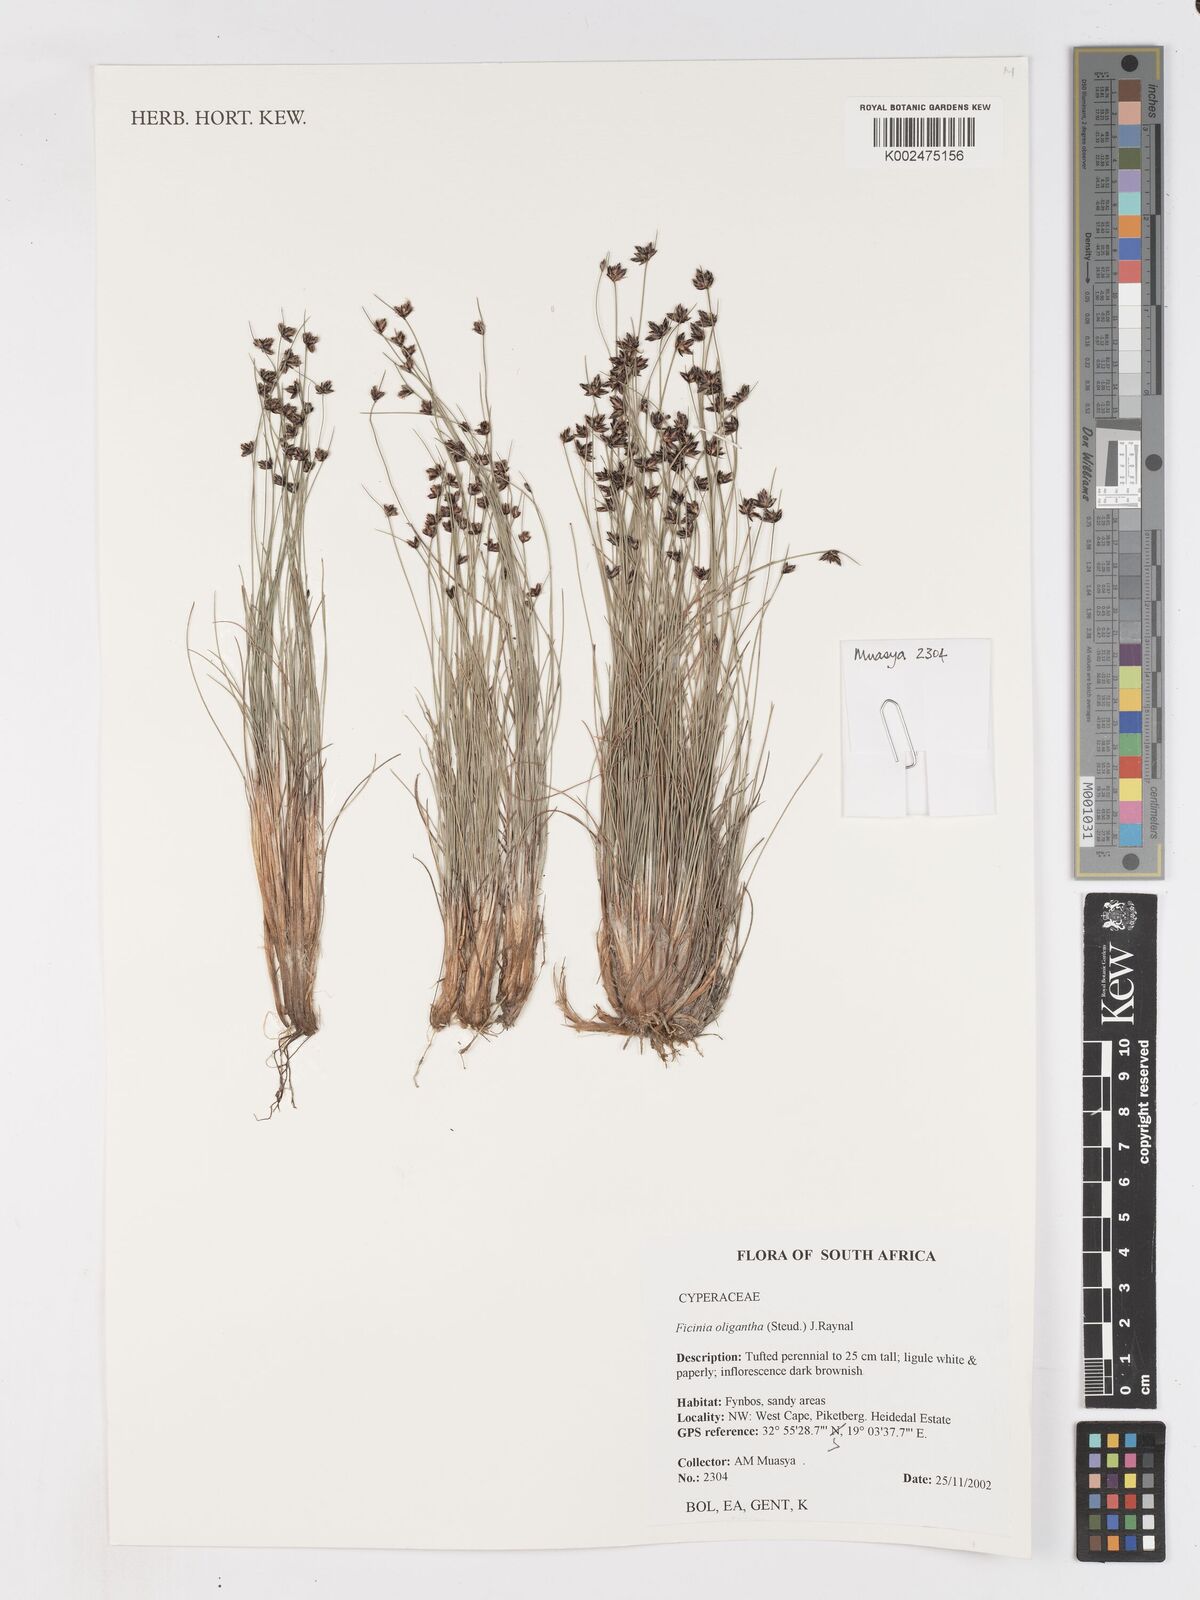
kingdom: Plantae
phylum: Tracheophyta
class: Liliopsida
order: Poales
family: Cyperaceae
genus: Ficinia
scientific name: Ficinia stolonifera
